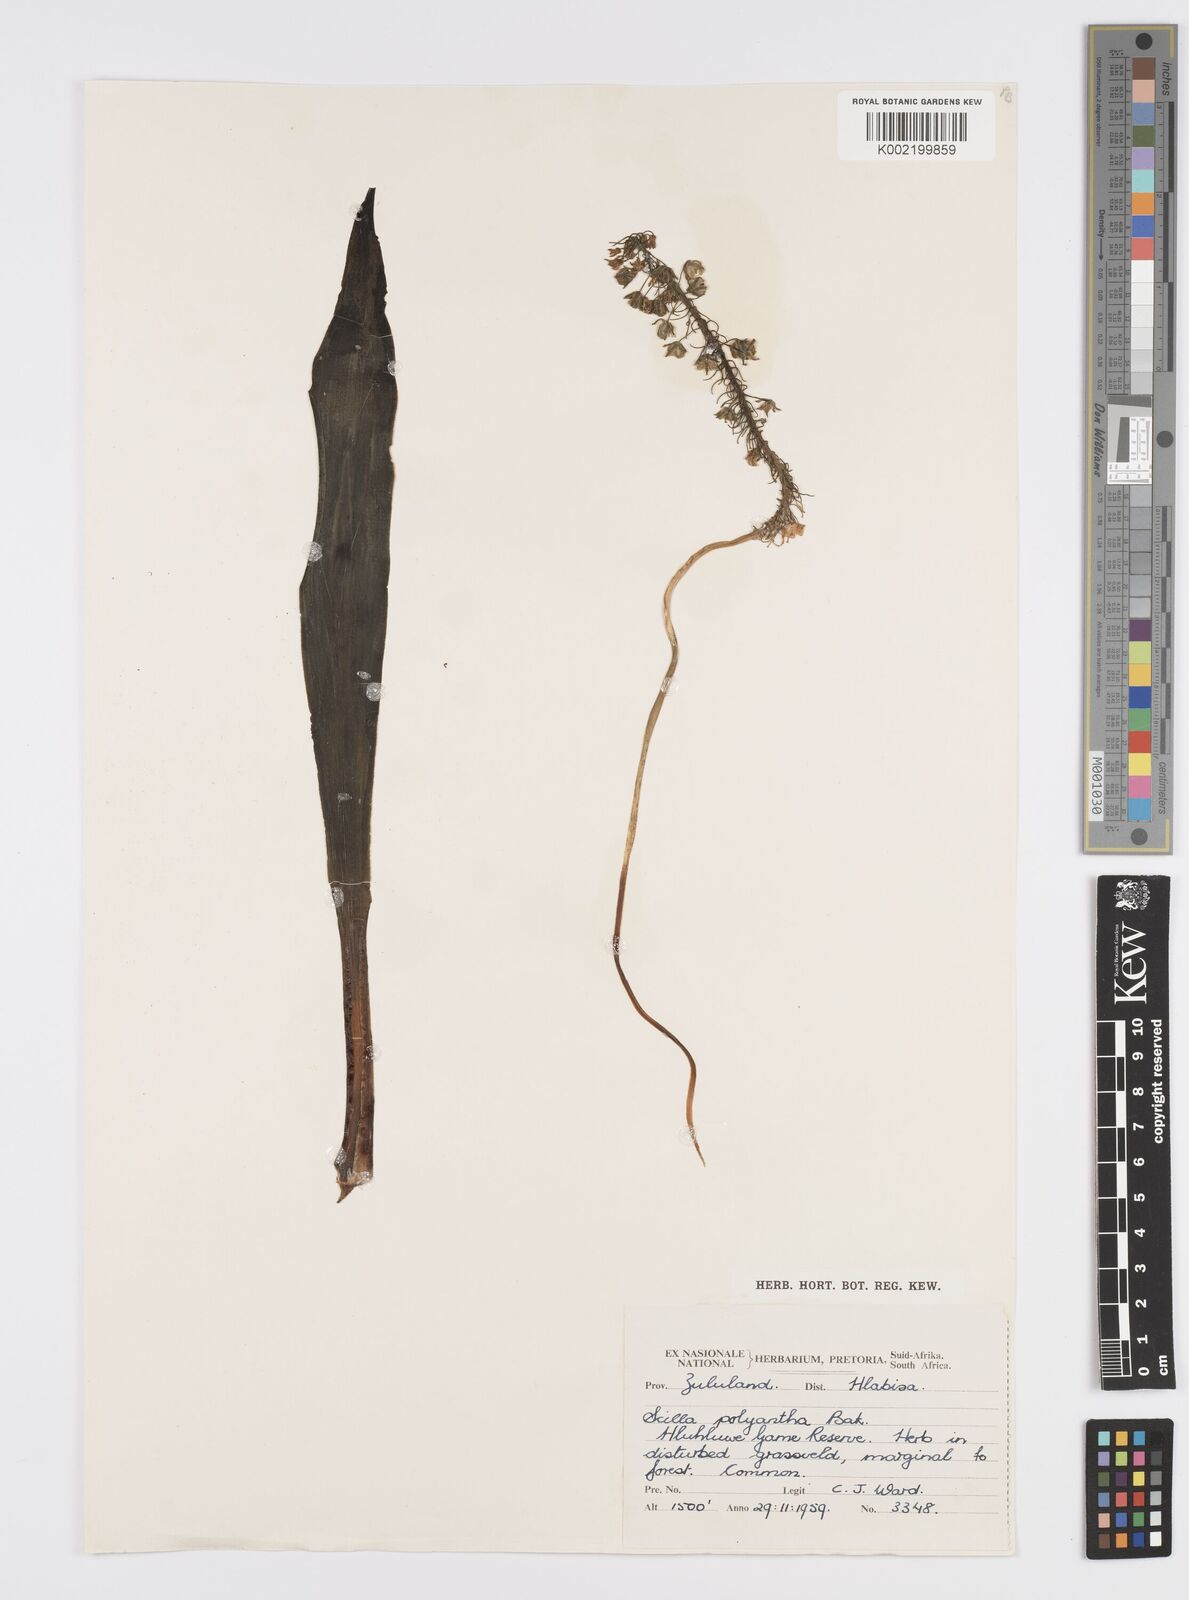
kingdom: Plantae
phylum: Tracheophyta
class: Liliopsida
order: Asparagales
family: Asparagaceae
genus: Ledebouria
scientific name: Ledebouria floribunda
